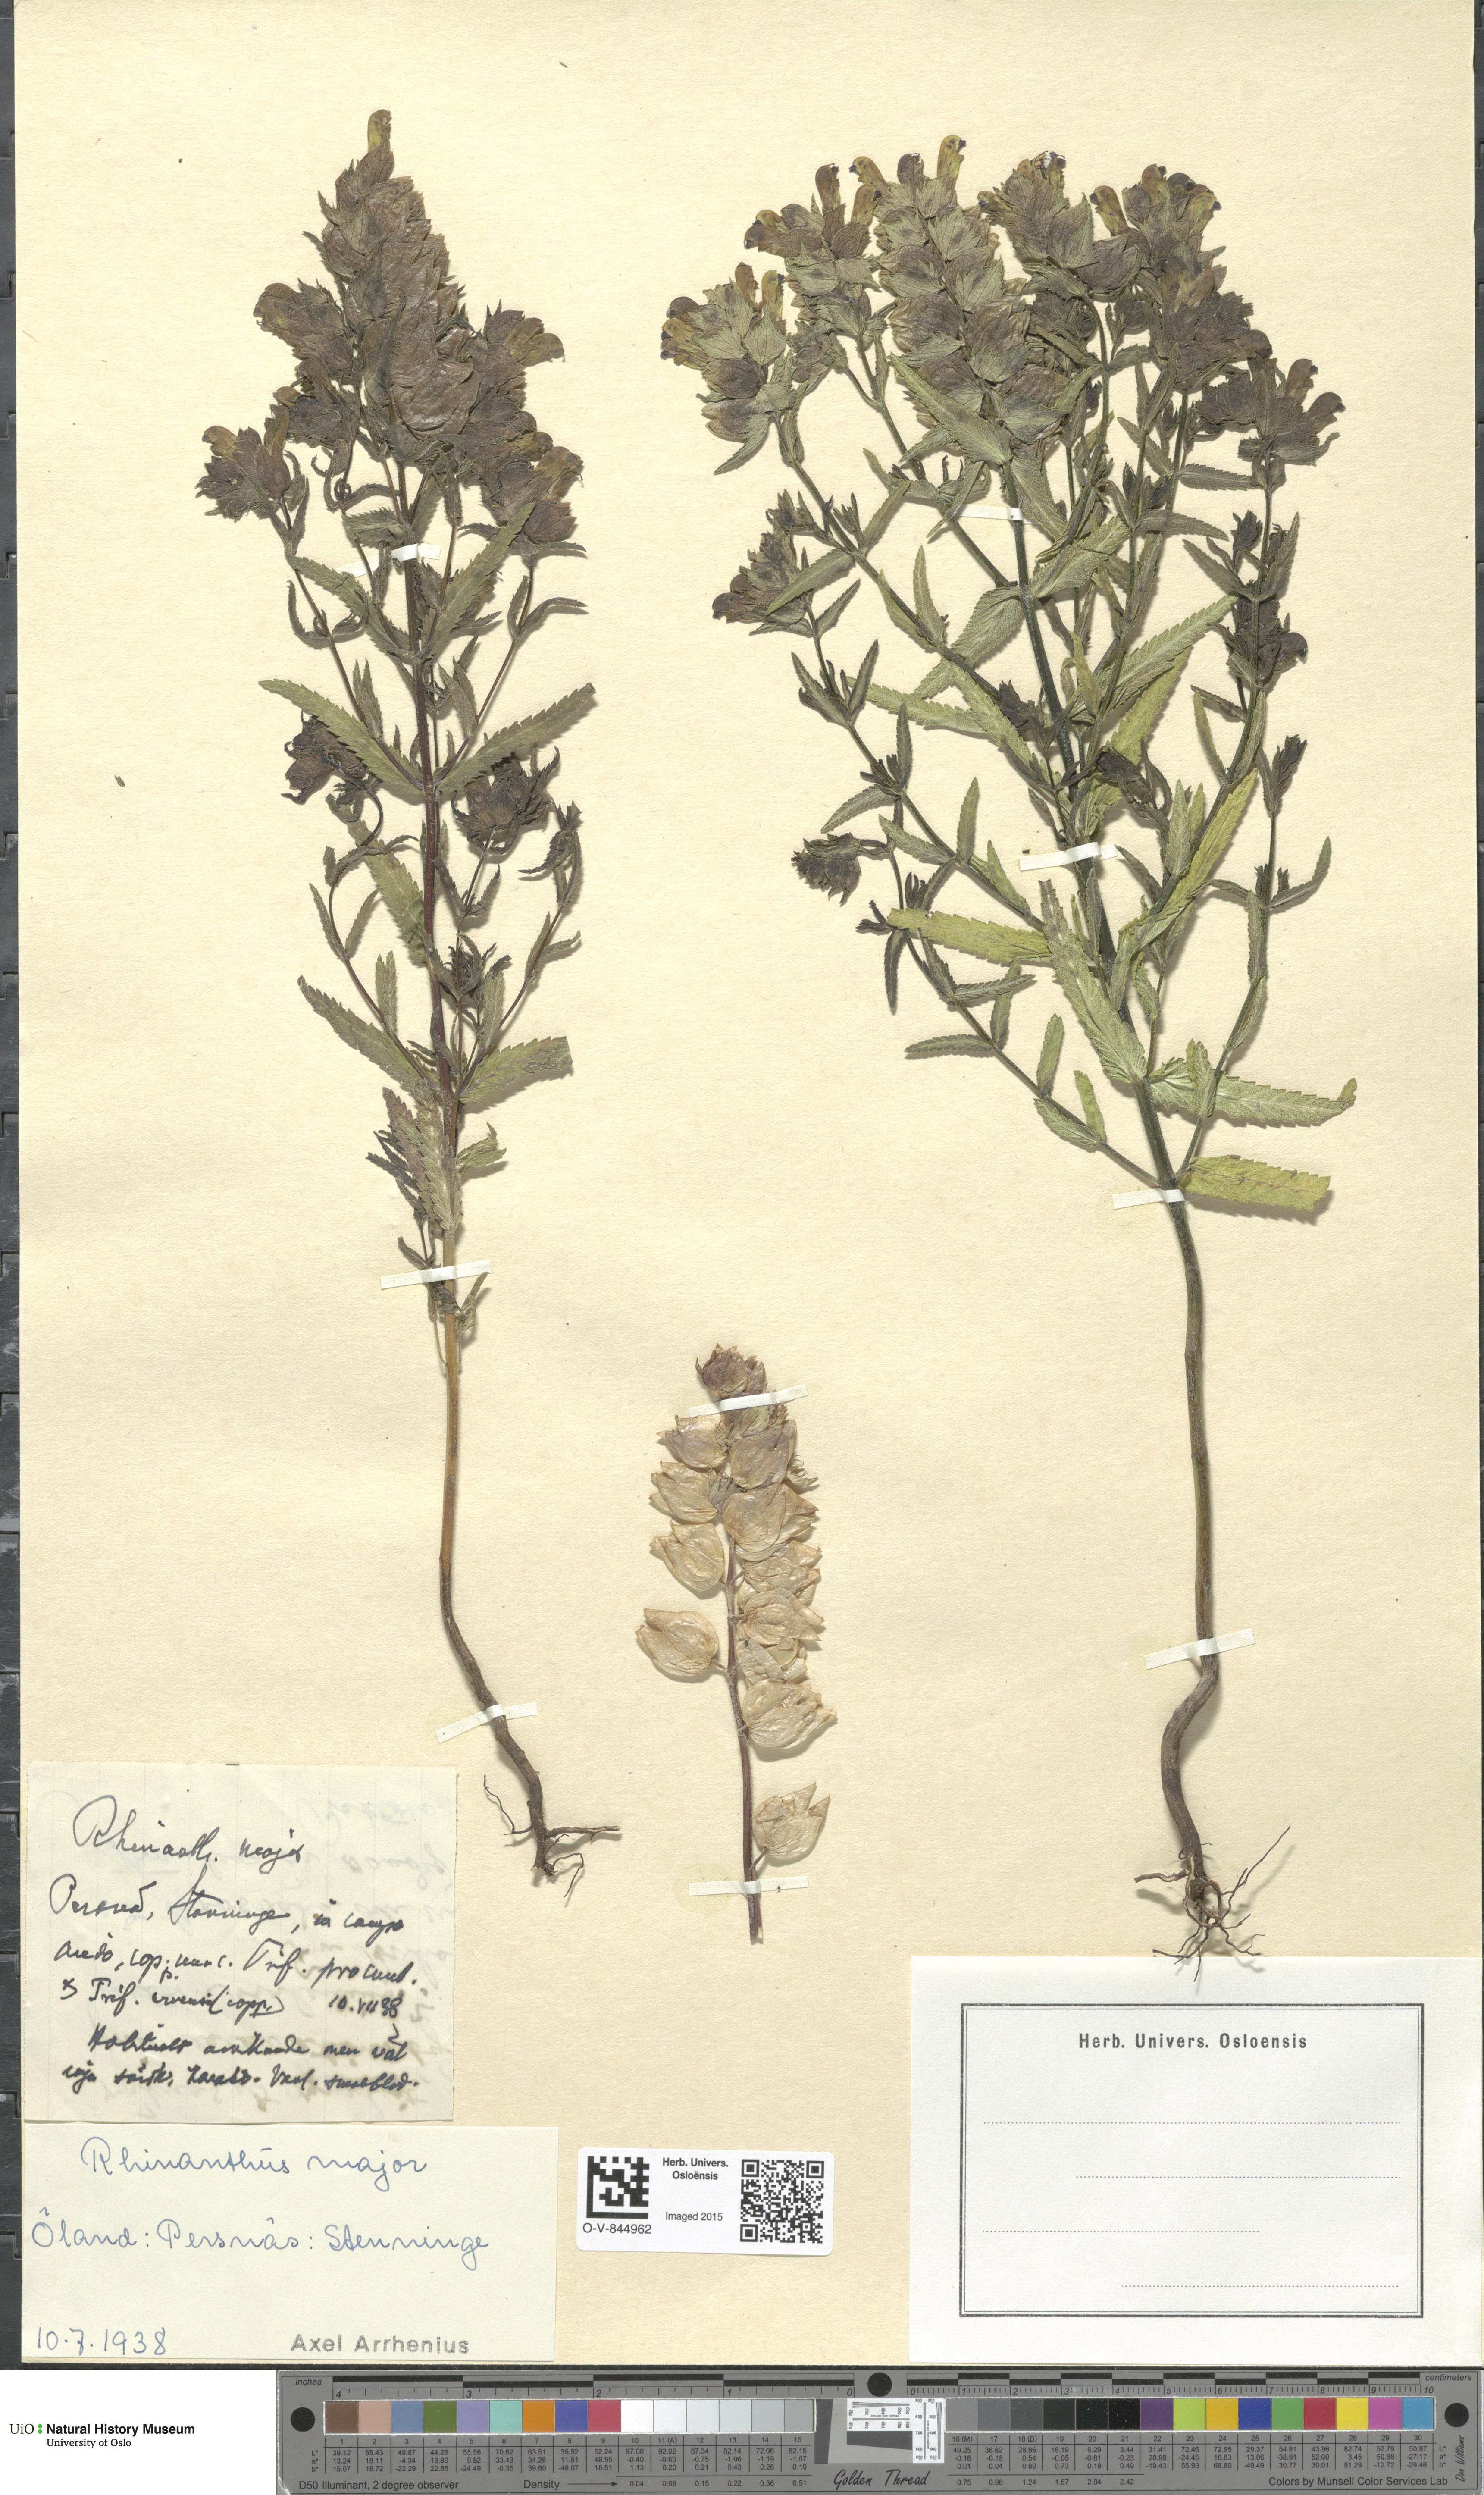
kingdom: Plantae
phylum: Tracheophyta
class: Magnoliopsida
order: Lamiales
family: Orobanchaceae
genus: Rhinanthus
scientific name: Rhinanthus serotinus
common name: Late-flowering yellow rattle
